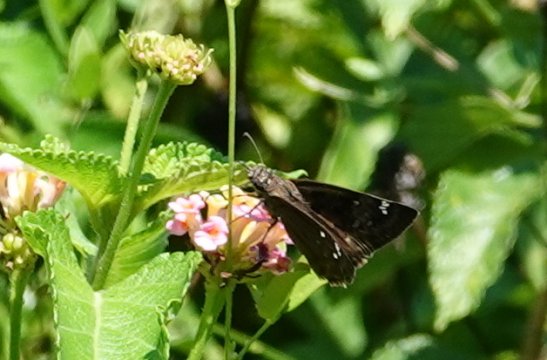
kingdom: Animalia
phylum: Arthropoda
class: Insecta
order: Lepidoptera
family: Hesperiidae
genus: Gesta
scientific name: Gesta
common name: Horace's Duskywing
